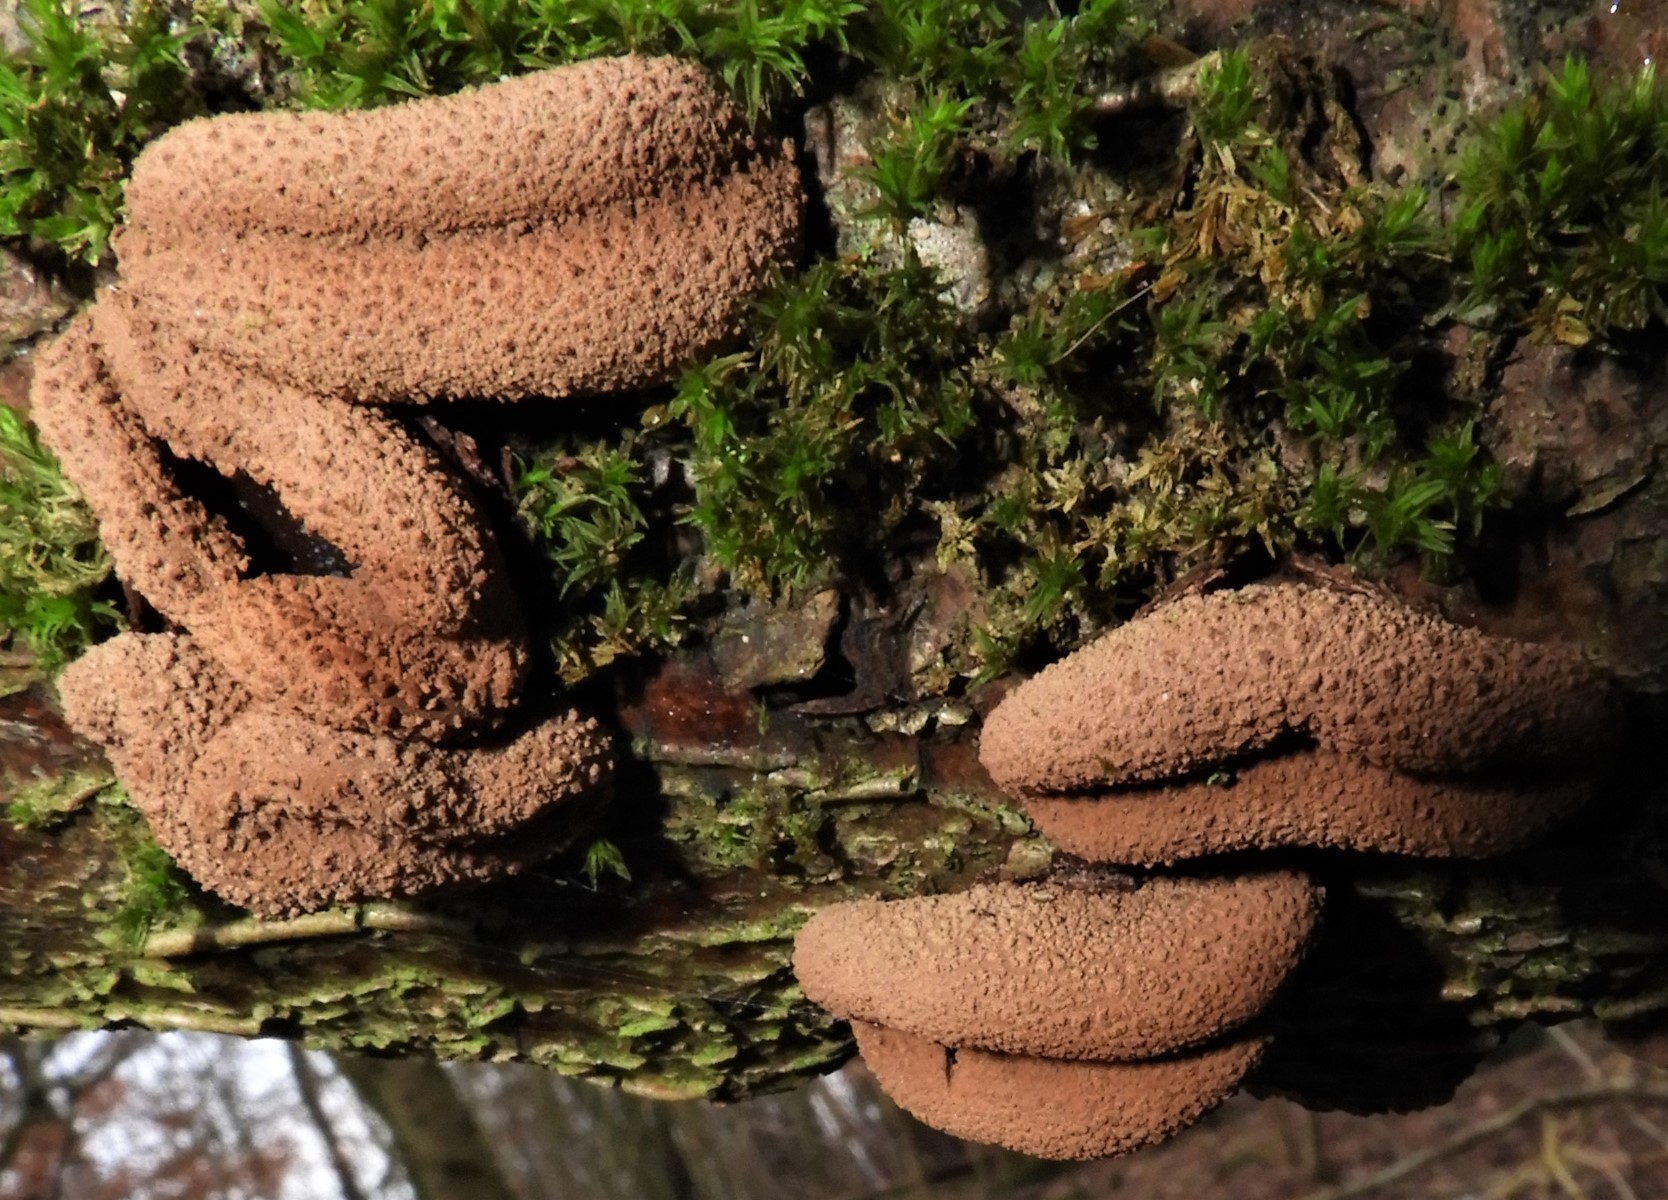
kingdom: Fungi
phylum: Ascomycota
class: Leotiomycetes
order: Helotiales
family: Cenangiaceae
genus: Encoelia
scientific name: Encoelia furfuracea
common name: hassel-læderskive
